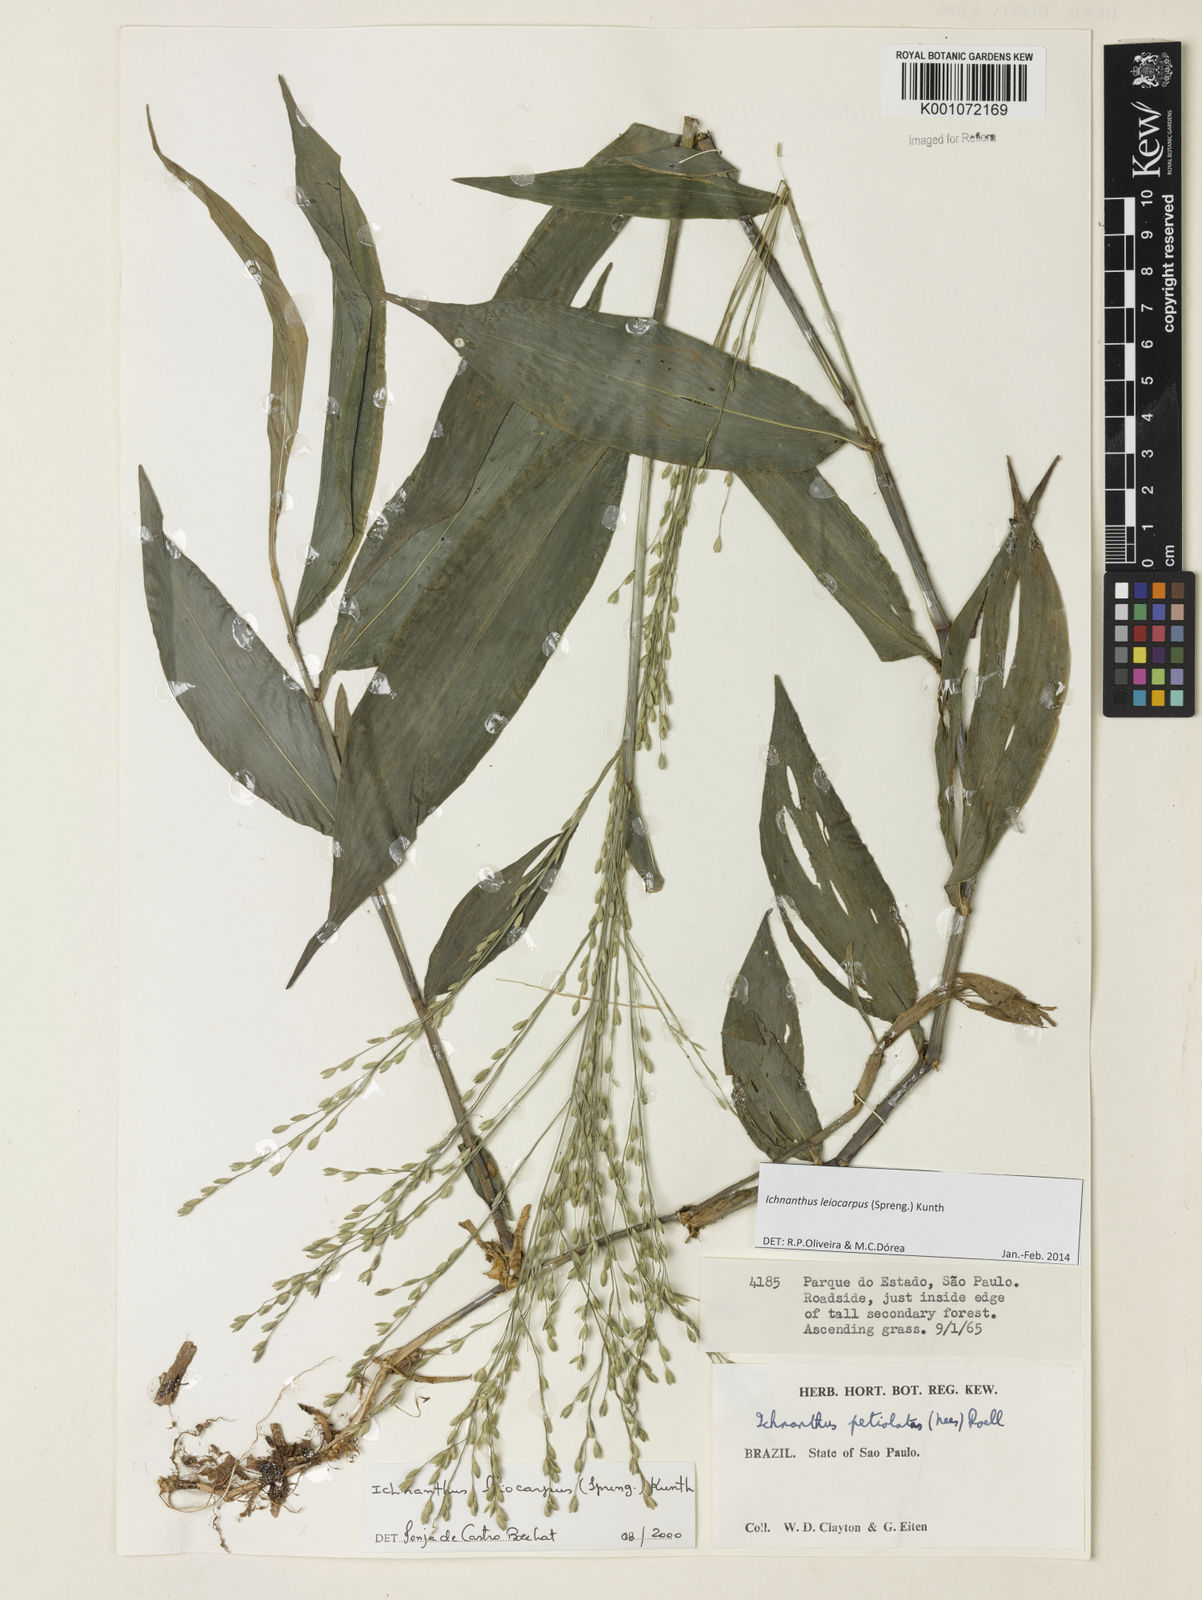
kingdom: Plantae
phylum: Tracheophyta
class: Liliopsida
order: Poales
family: Poaceae
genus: Ichnanthus
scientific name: Ichnanthus leiocarpus
